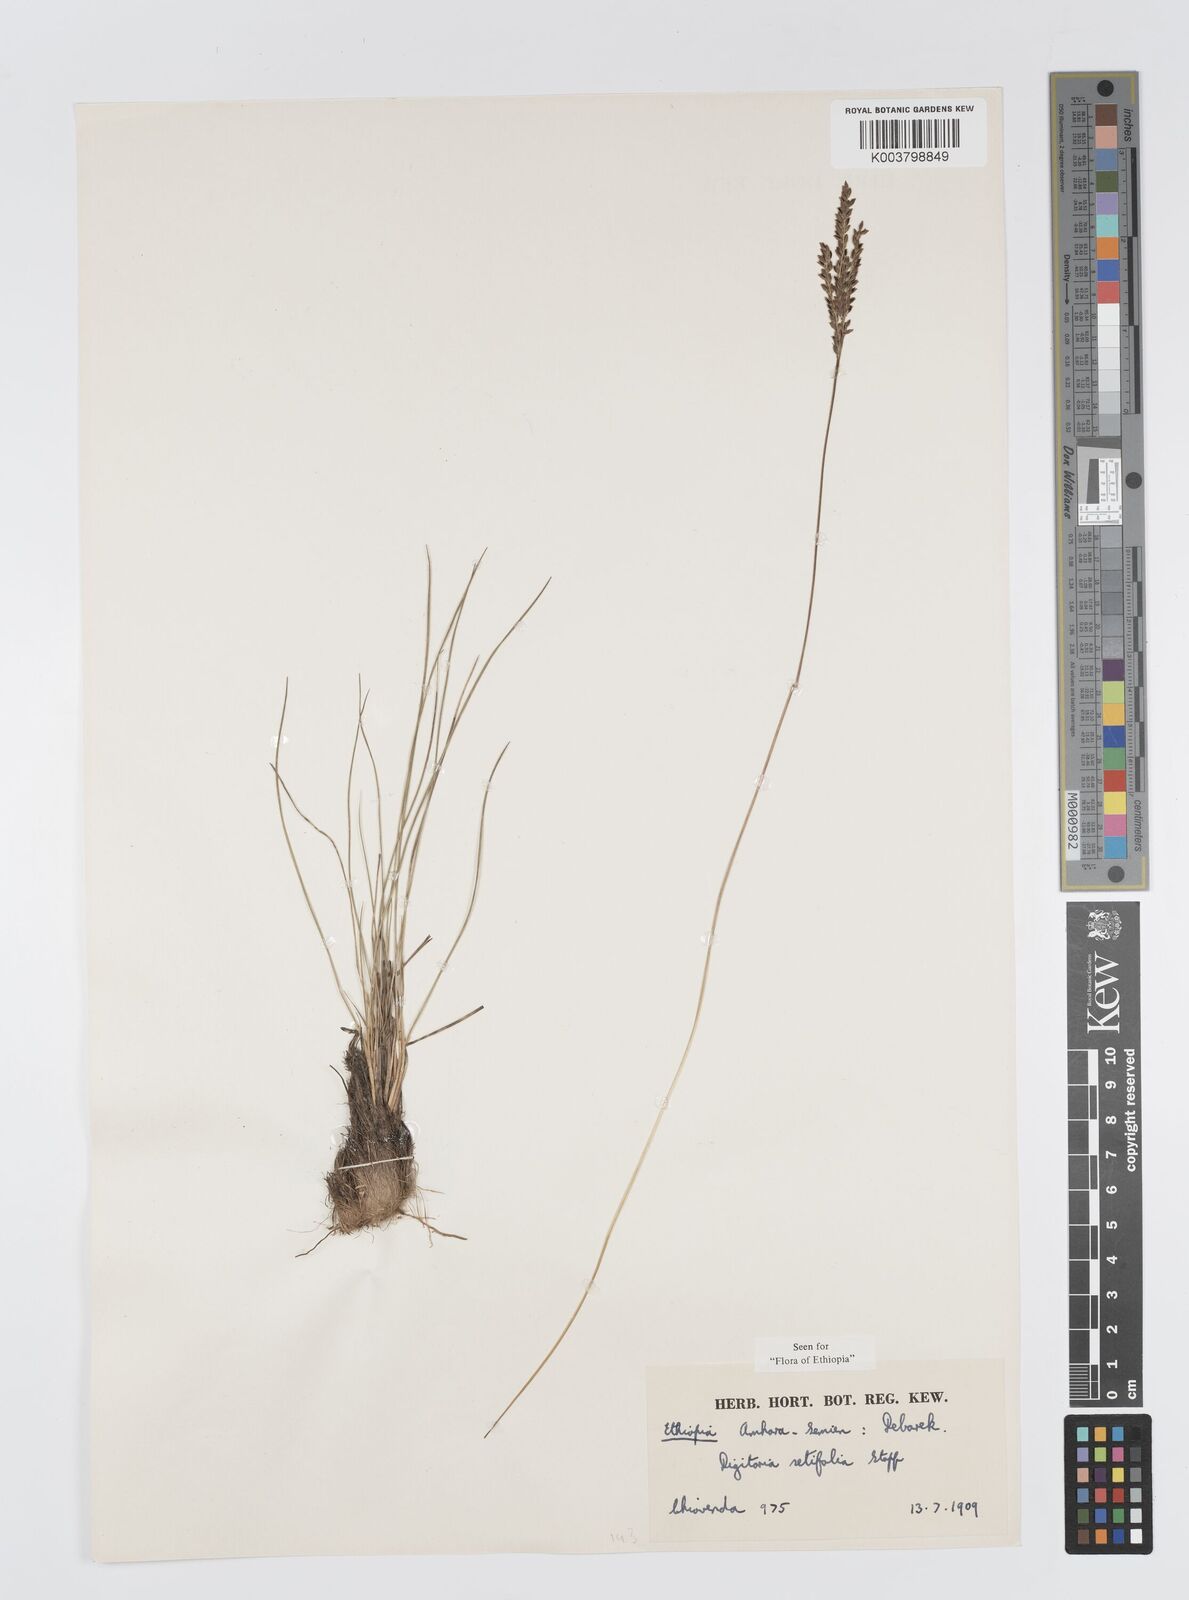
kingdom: Plantae
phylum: Tracheophyta
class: Liliopsida
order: Poales
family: Poaceae
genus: Digitaria
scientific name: Digitaria setifolia
